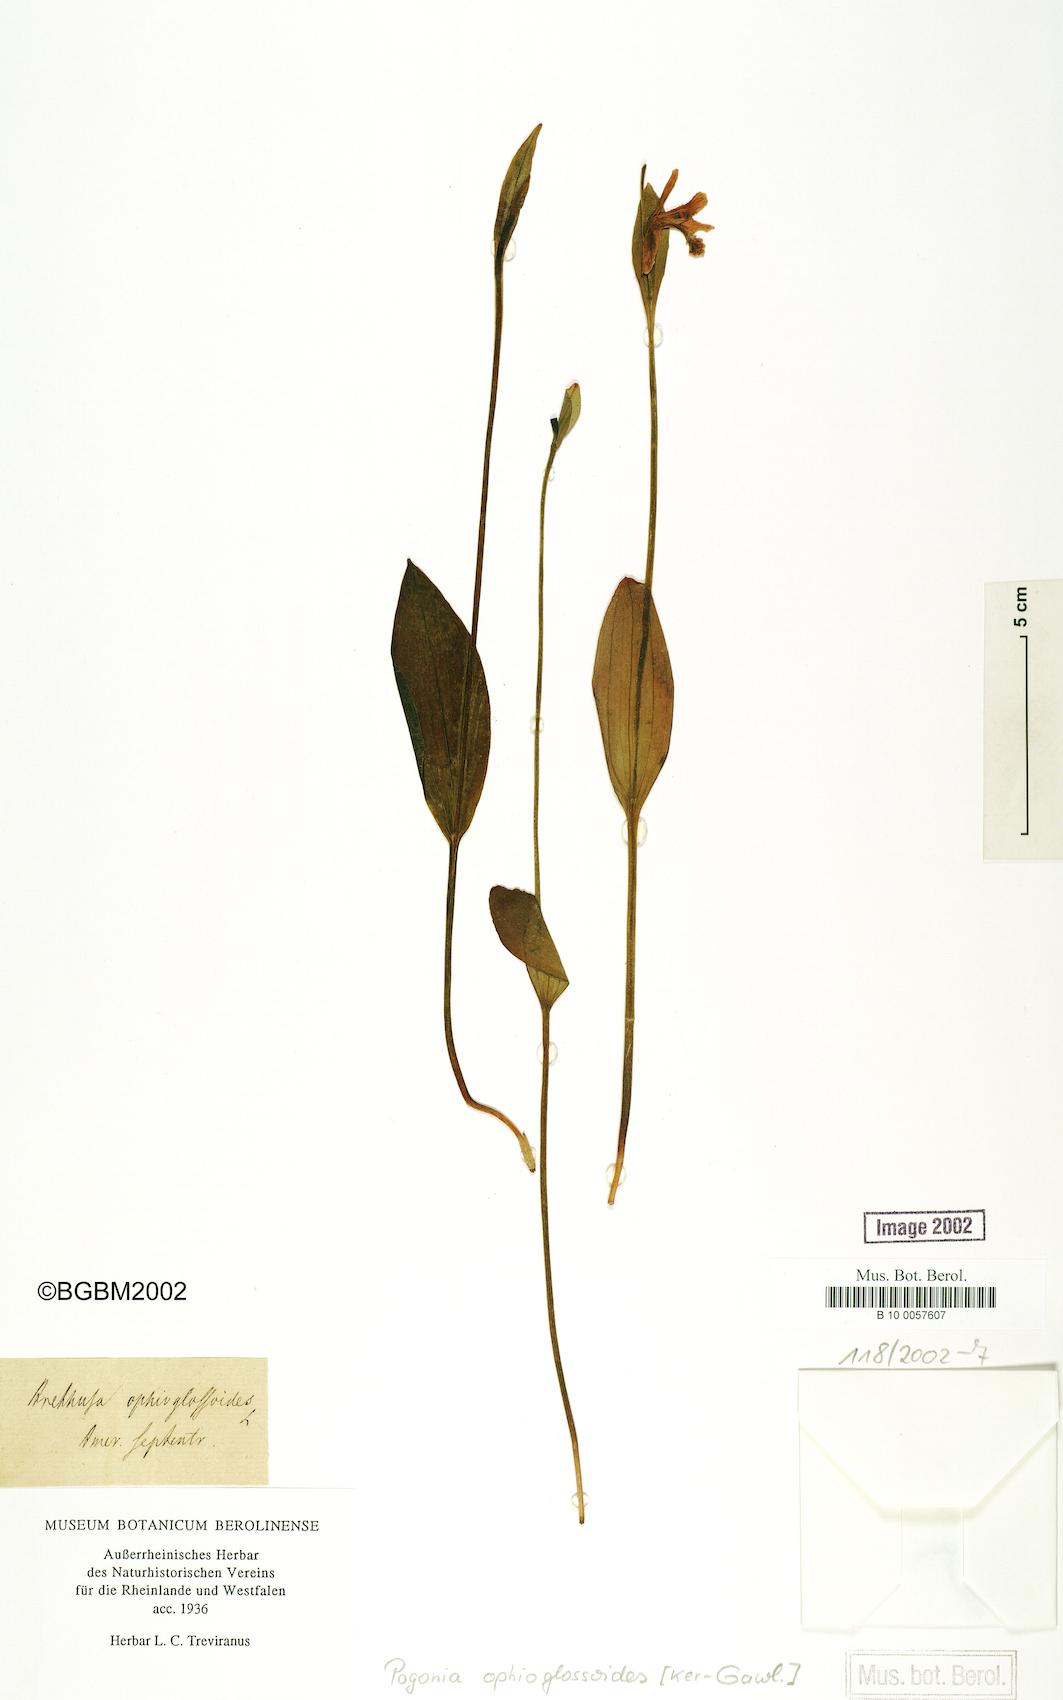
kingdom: Plantae
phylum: Tracheophyta
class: Liliopsida
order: Asparagales
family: Orchidaceae
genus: Pogonia
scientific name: Pogonia ophioglossoides
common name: Rose pogonia
